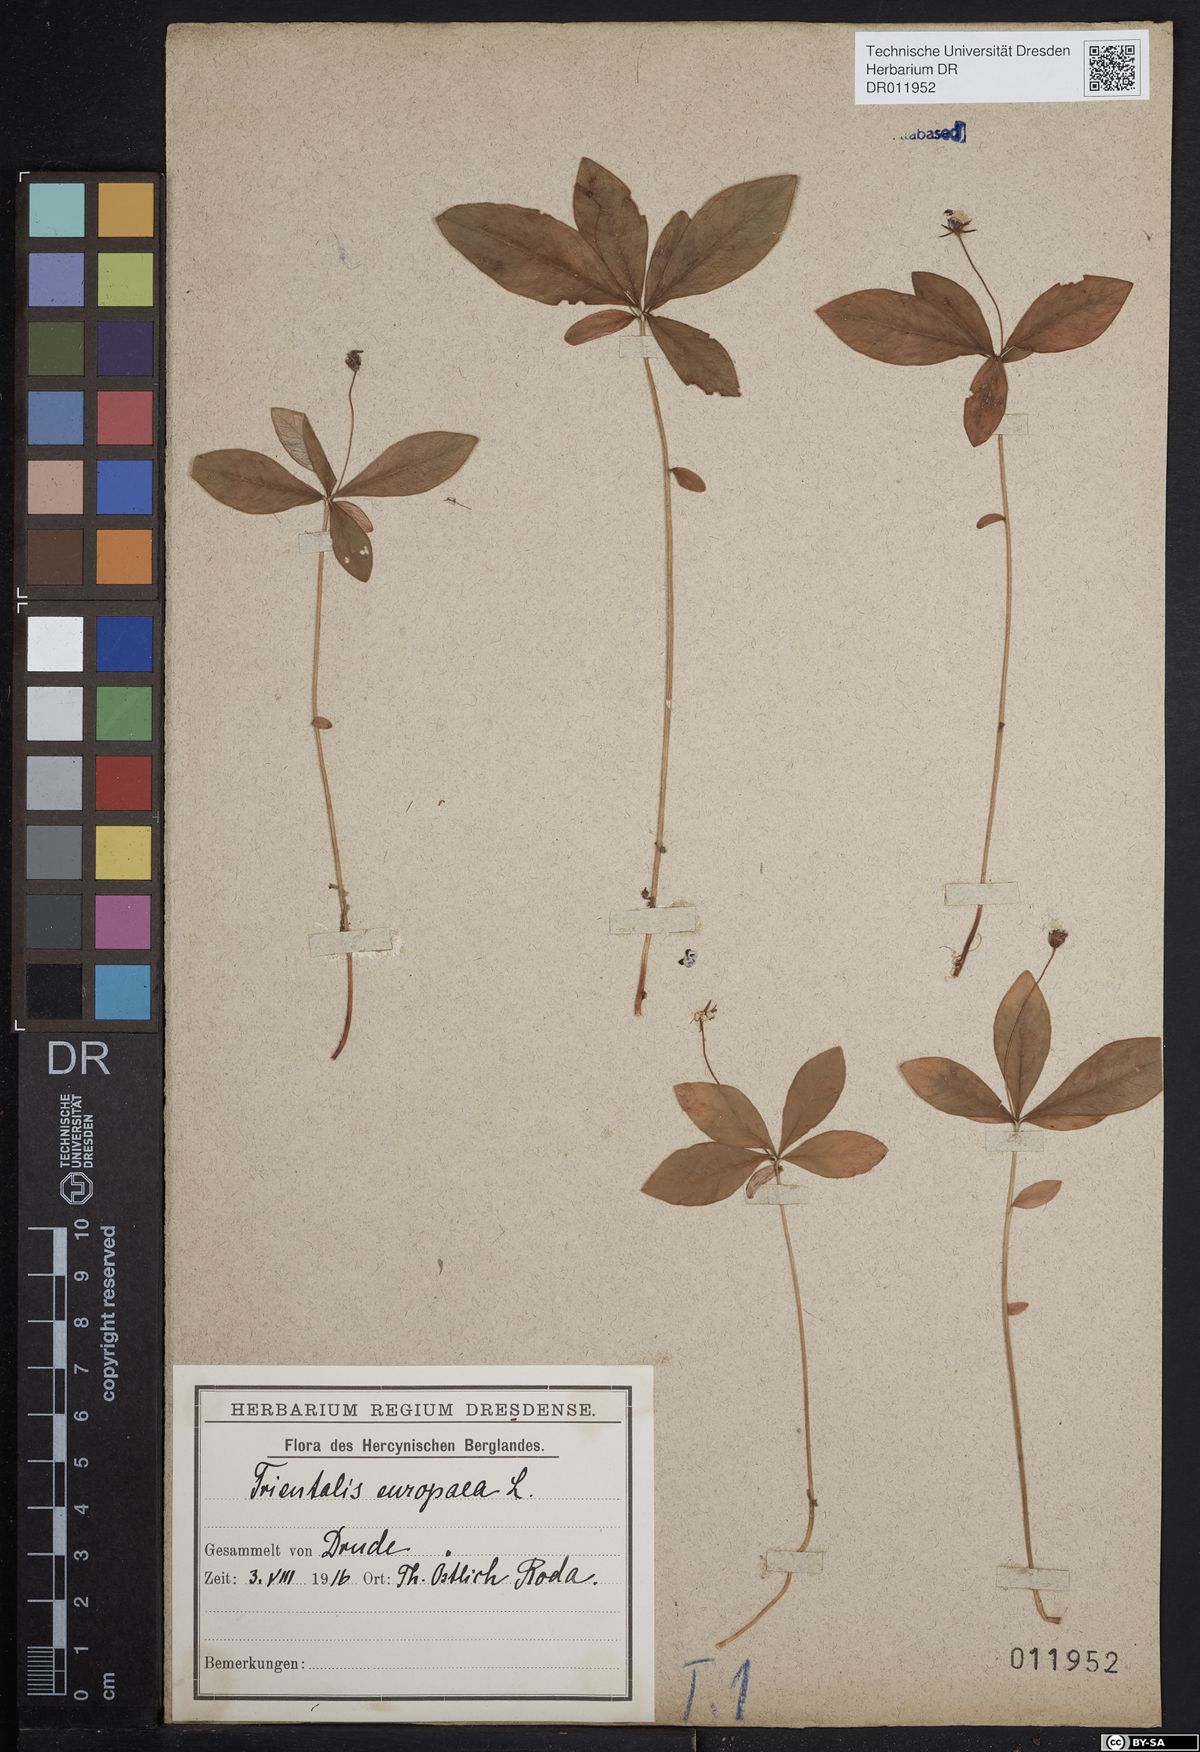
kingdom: Plantae
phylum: Tracheophyta
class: Magnoliopsida
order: Ericales
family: Primulaceae
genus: Lysimachia
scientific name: Lysimachia europaea
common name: Arctic starflower
